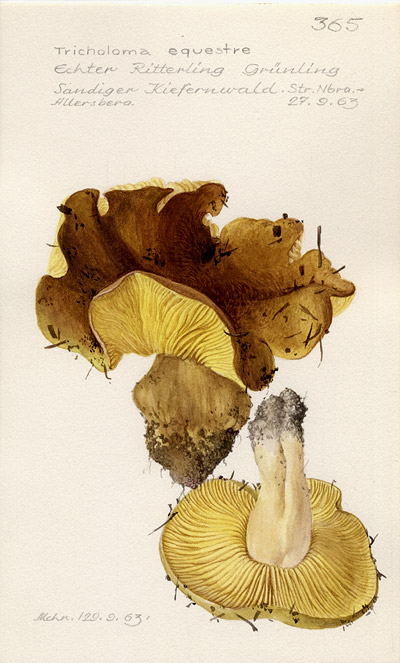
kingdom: Fungi
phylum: Basidiomycota
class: Agaricomycetes
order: Agaricales
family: Tricholomataceae
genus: Tricholoma
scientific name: Tricholoma equestre
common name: Yellow knight
